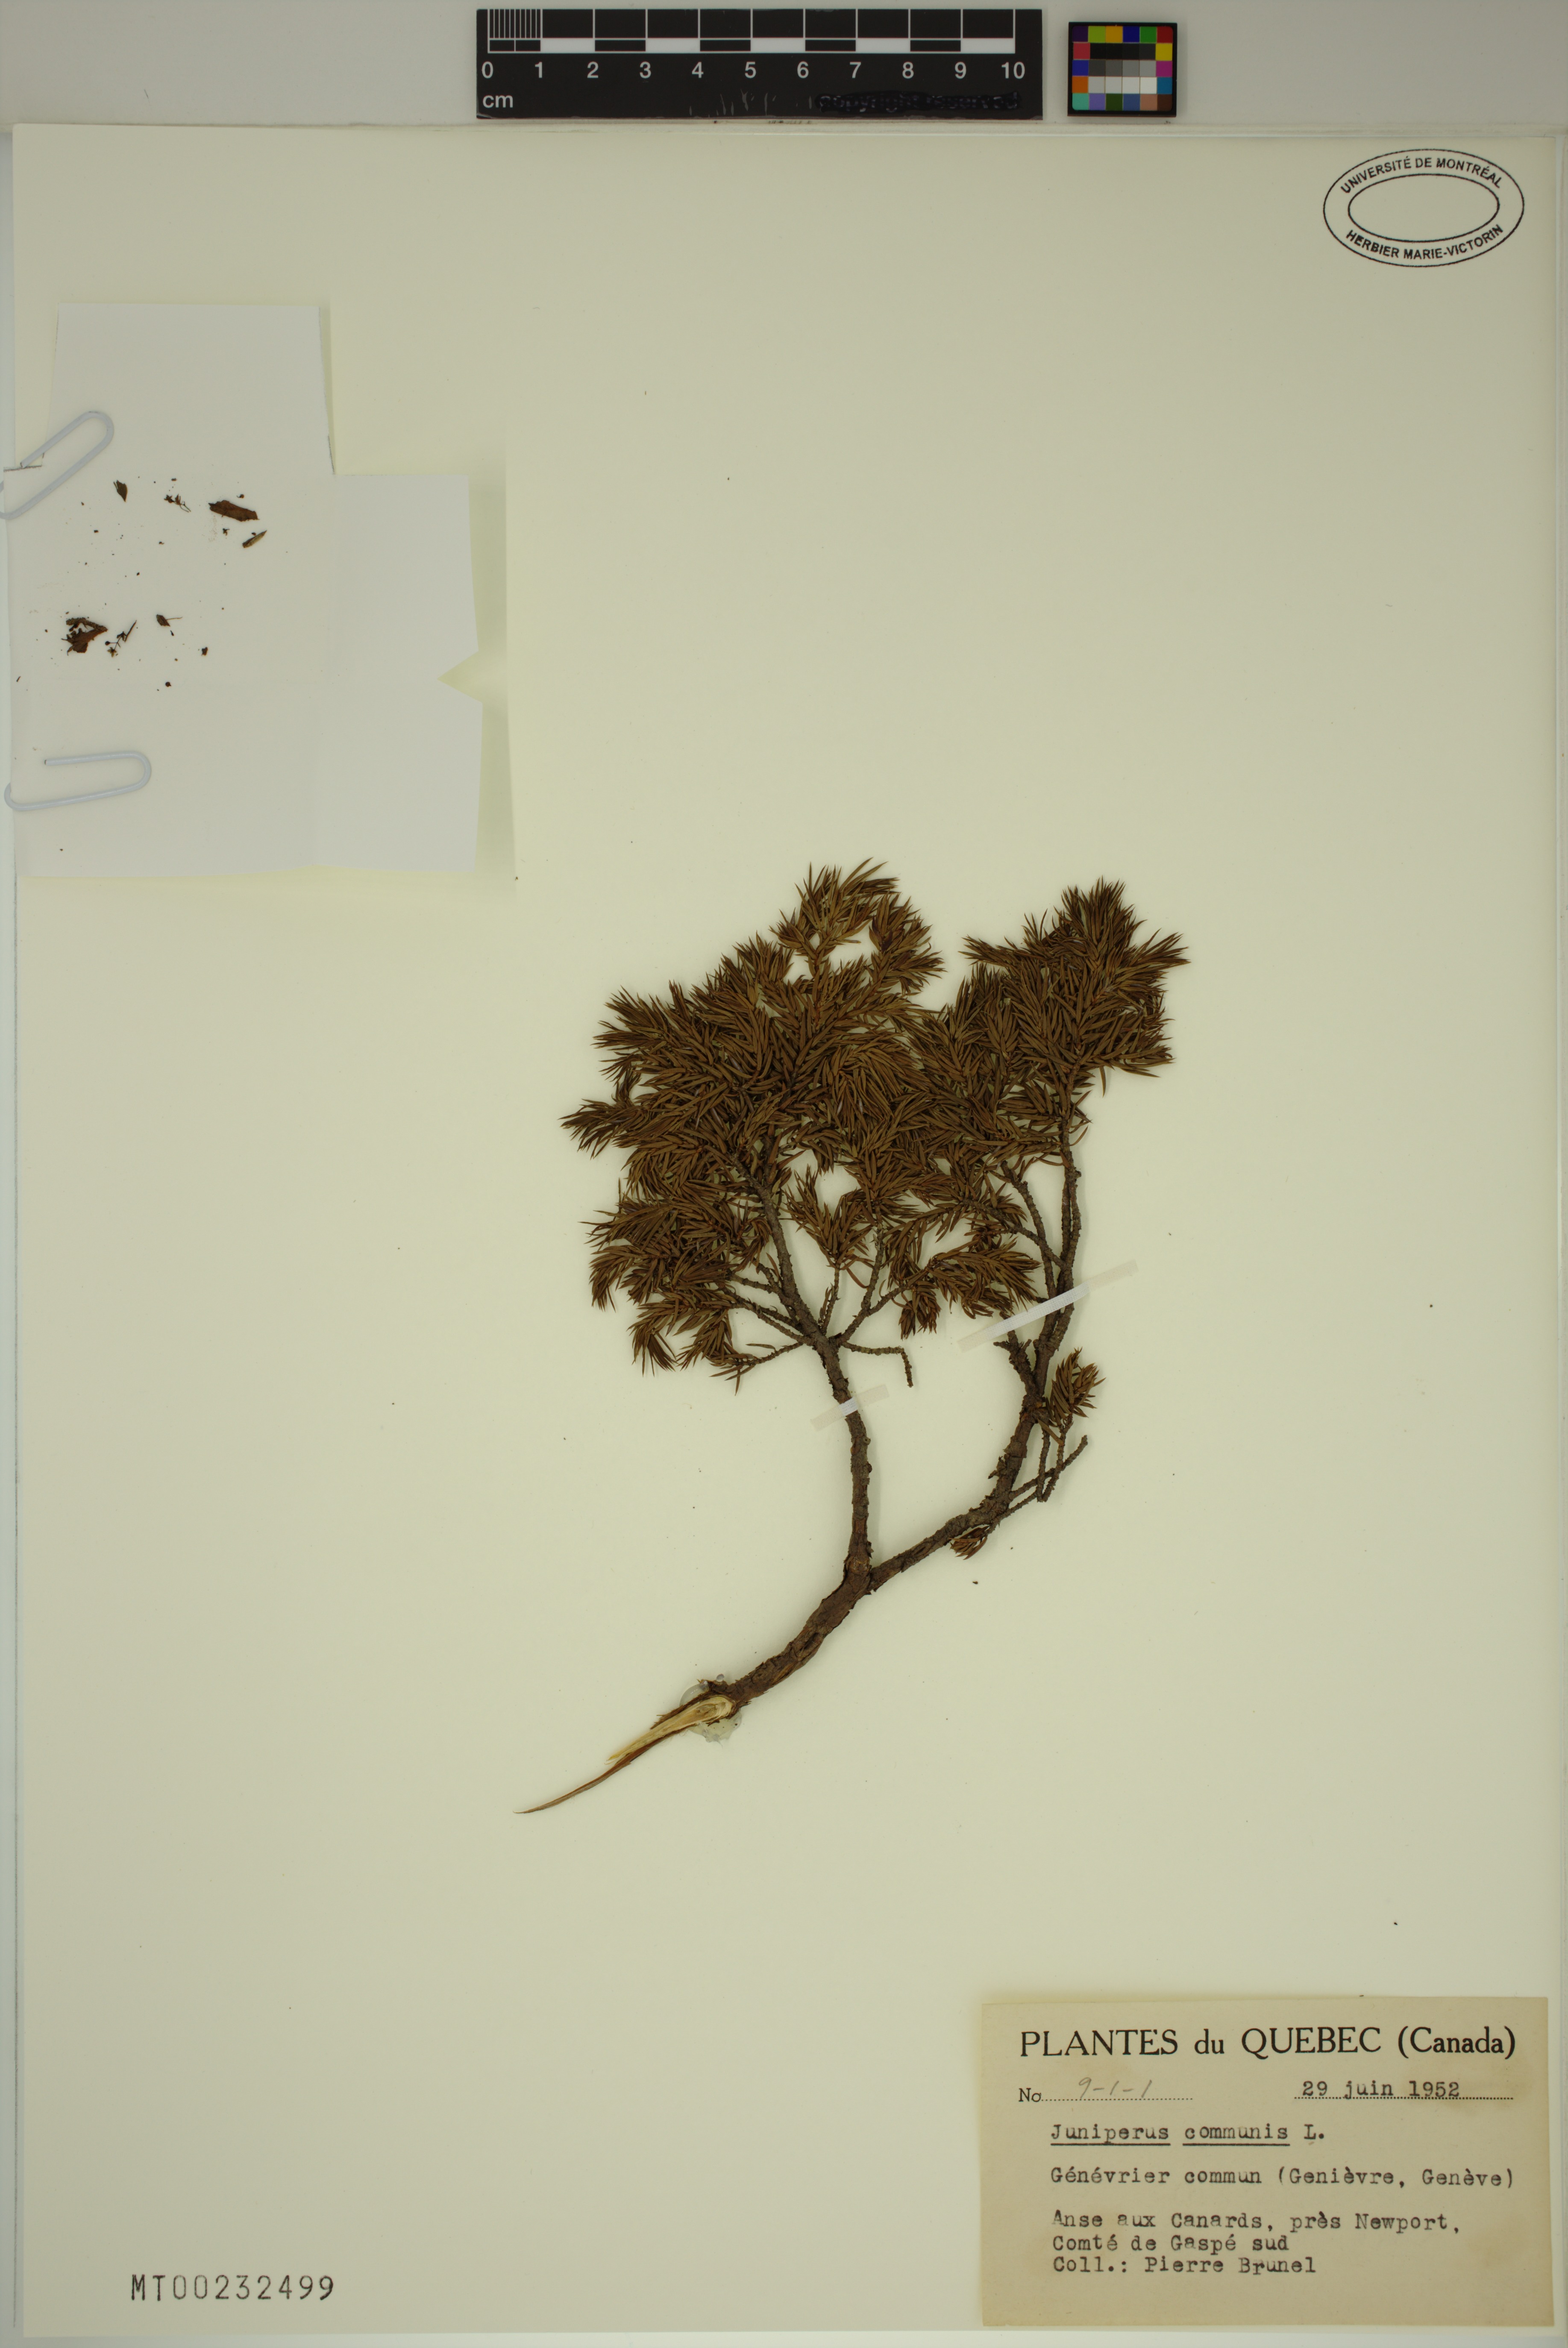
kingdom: Plantae
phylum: Tracheophyta
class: Pinopsida
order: Pinales
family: Cupressaceae
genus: Juniperus
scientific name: Juniperus communis
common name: Common juniper
